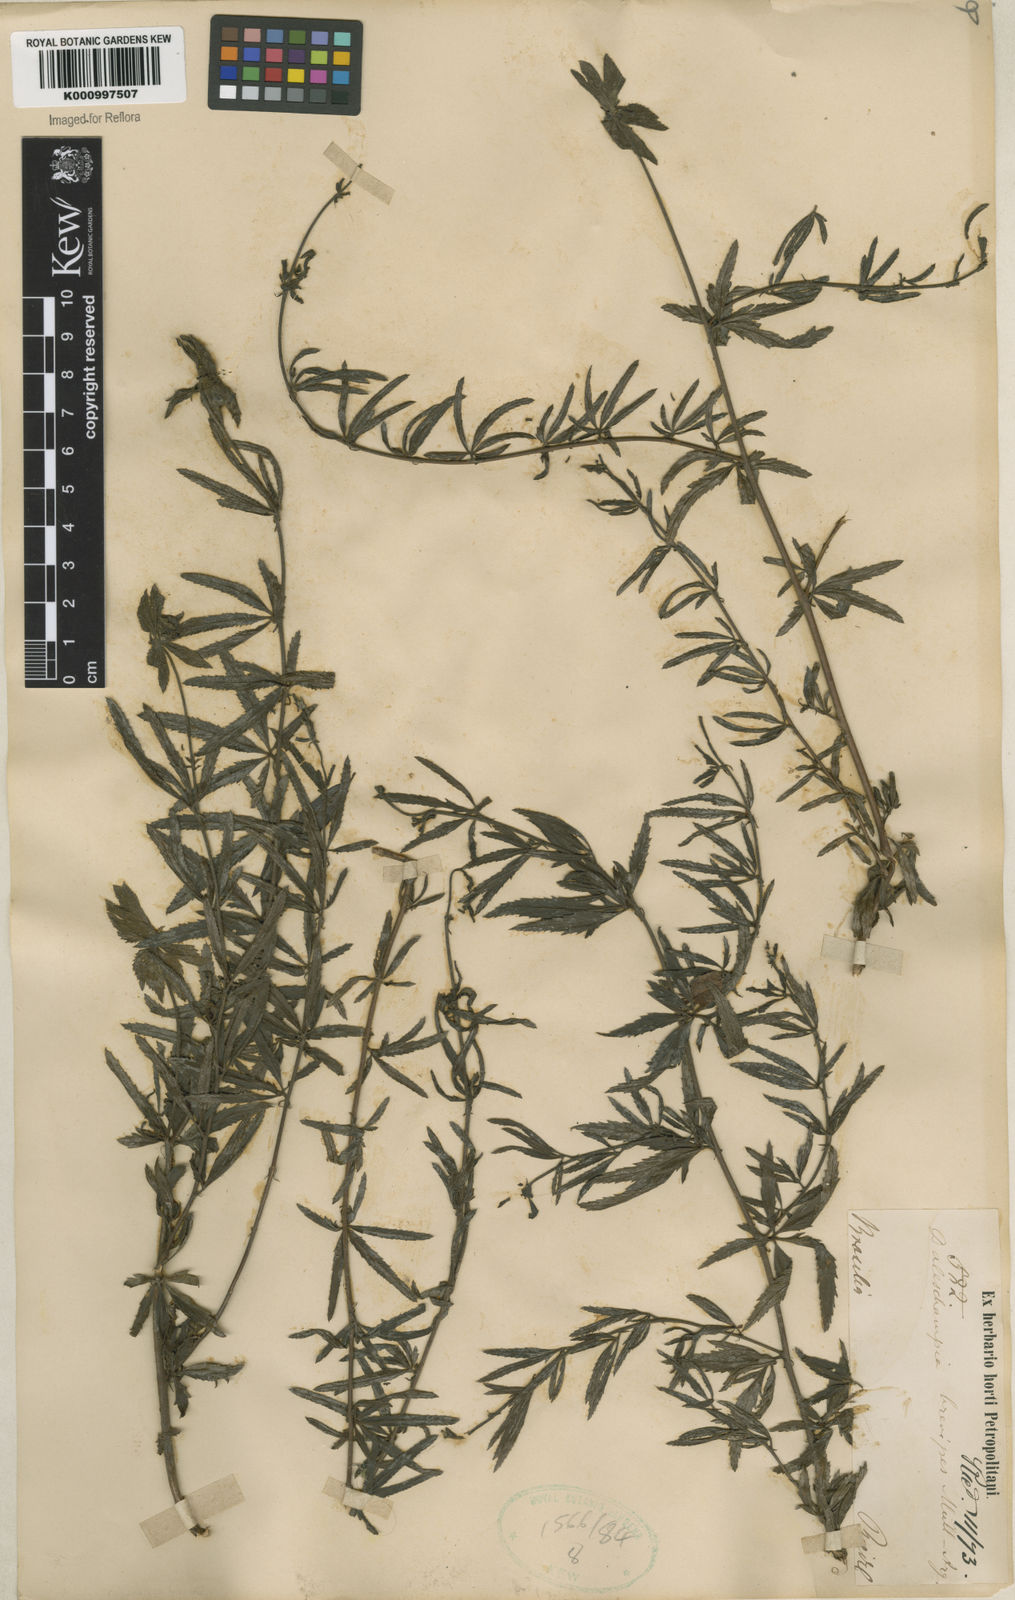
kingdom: Plantae
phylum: Tracheophyta
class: Magnoliopsida
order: Malpighiales
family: Euphorbiaceae
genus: Dalechampia
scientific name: Dalechampia
